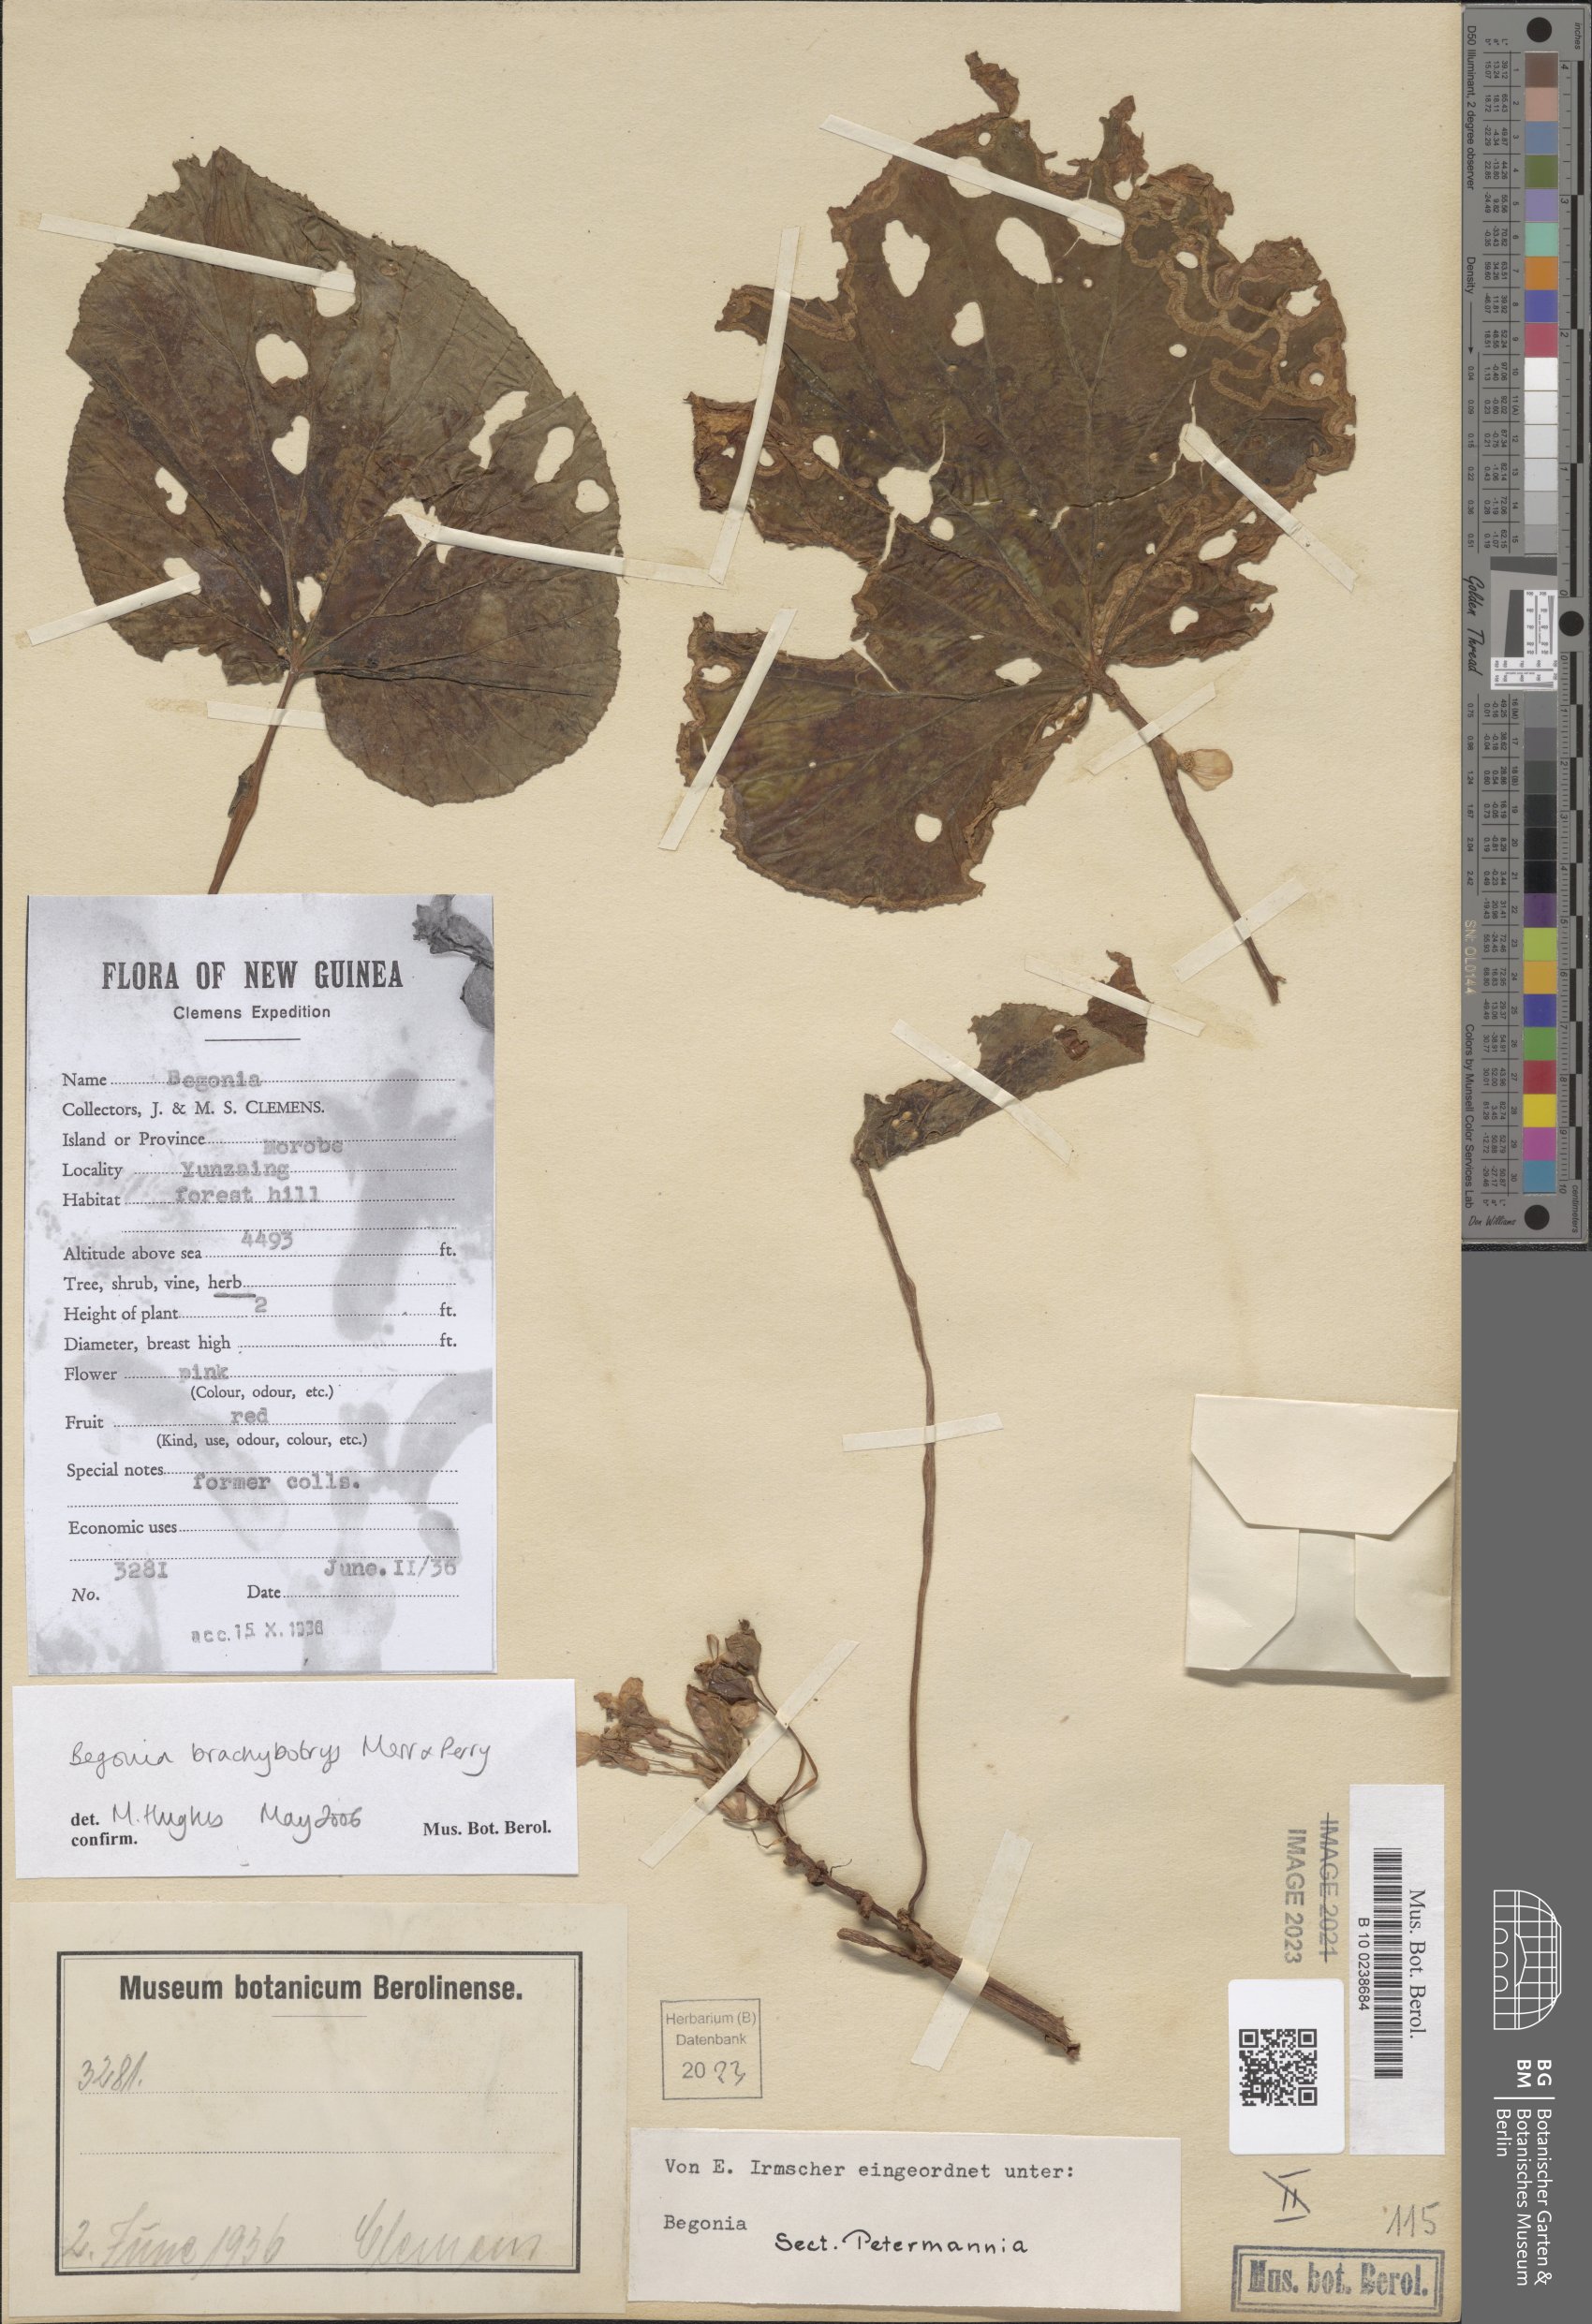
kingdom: Plantae
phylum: Tracheophyta
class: Magnoliopsida
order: Cucurbitales
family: Begoniaceae
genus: Begonia
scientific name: Begonia brachybotrys
